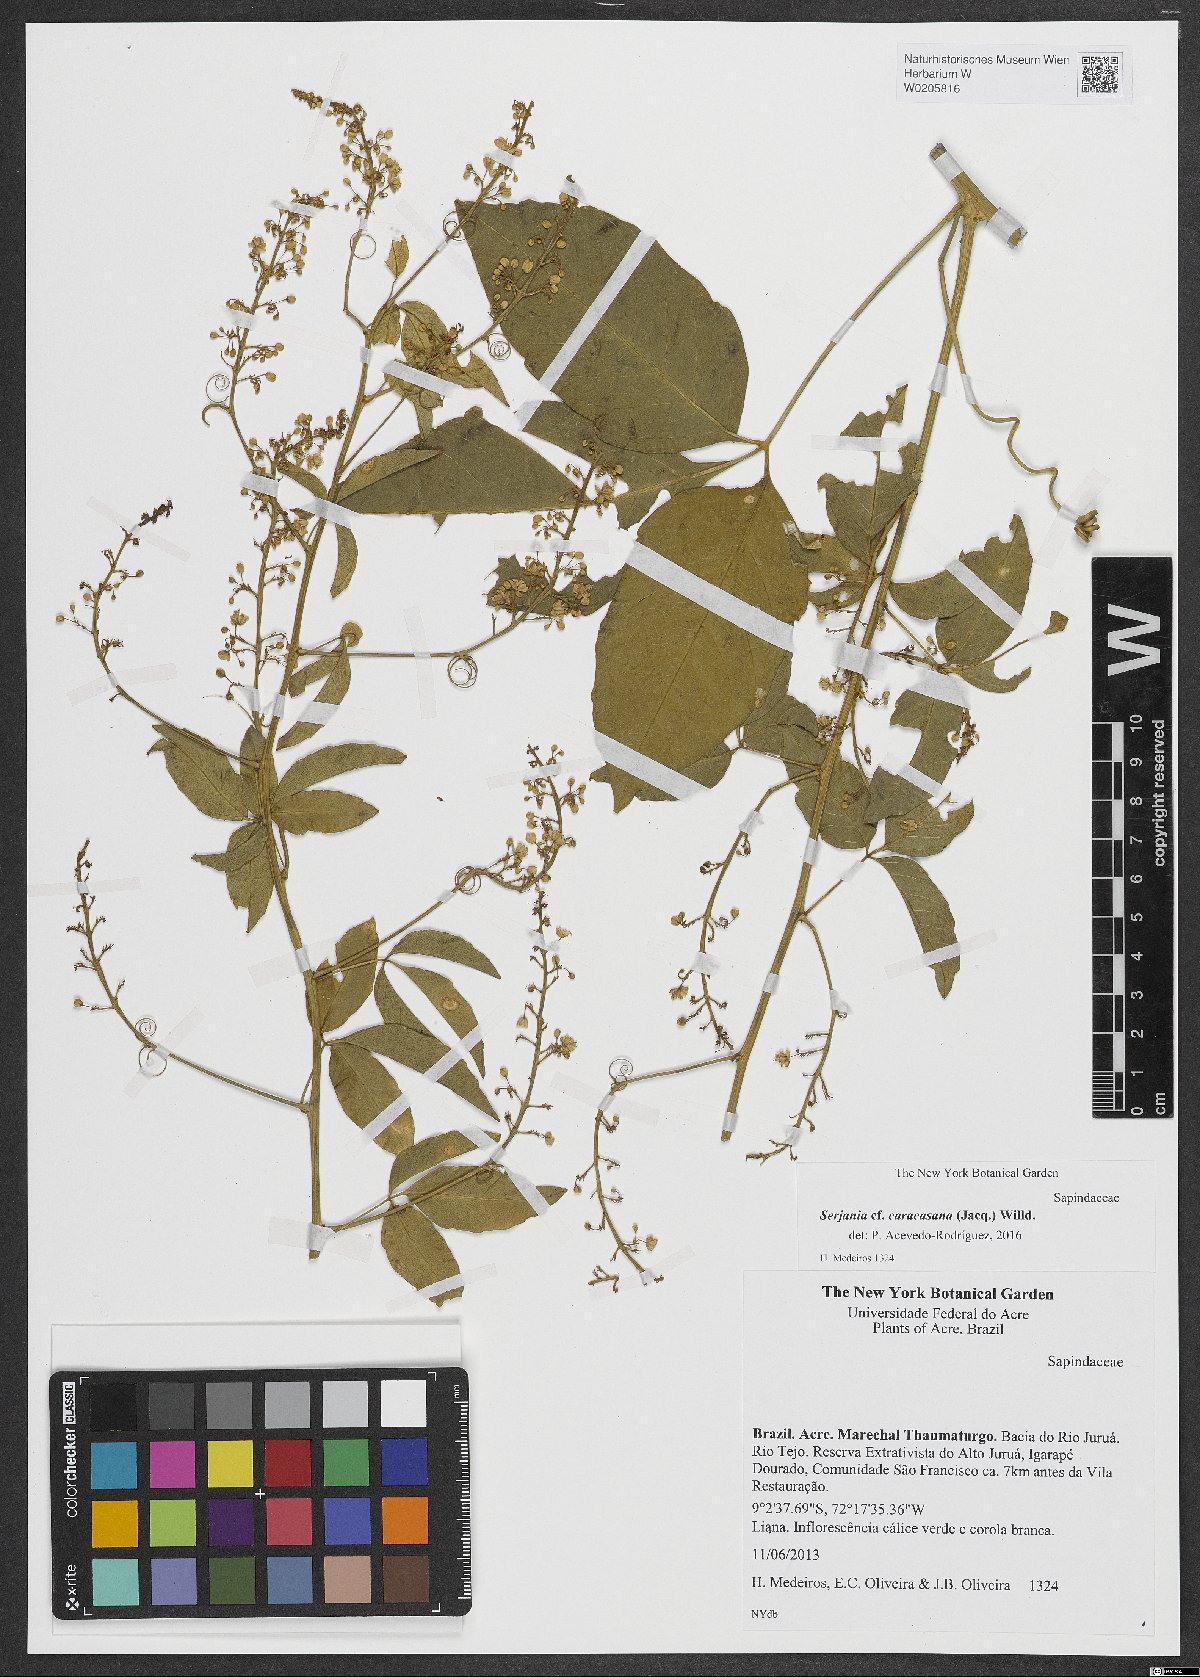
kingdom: Plantae
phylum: Tracheophyta
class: Magnoliopsida
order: Sapindales
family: Sapindaceae
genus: Serjania
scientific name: Serjania caracasana
